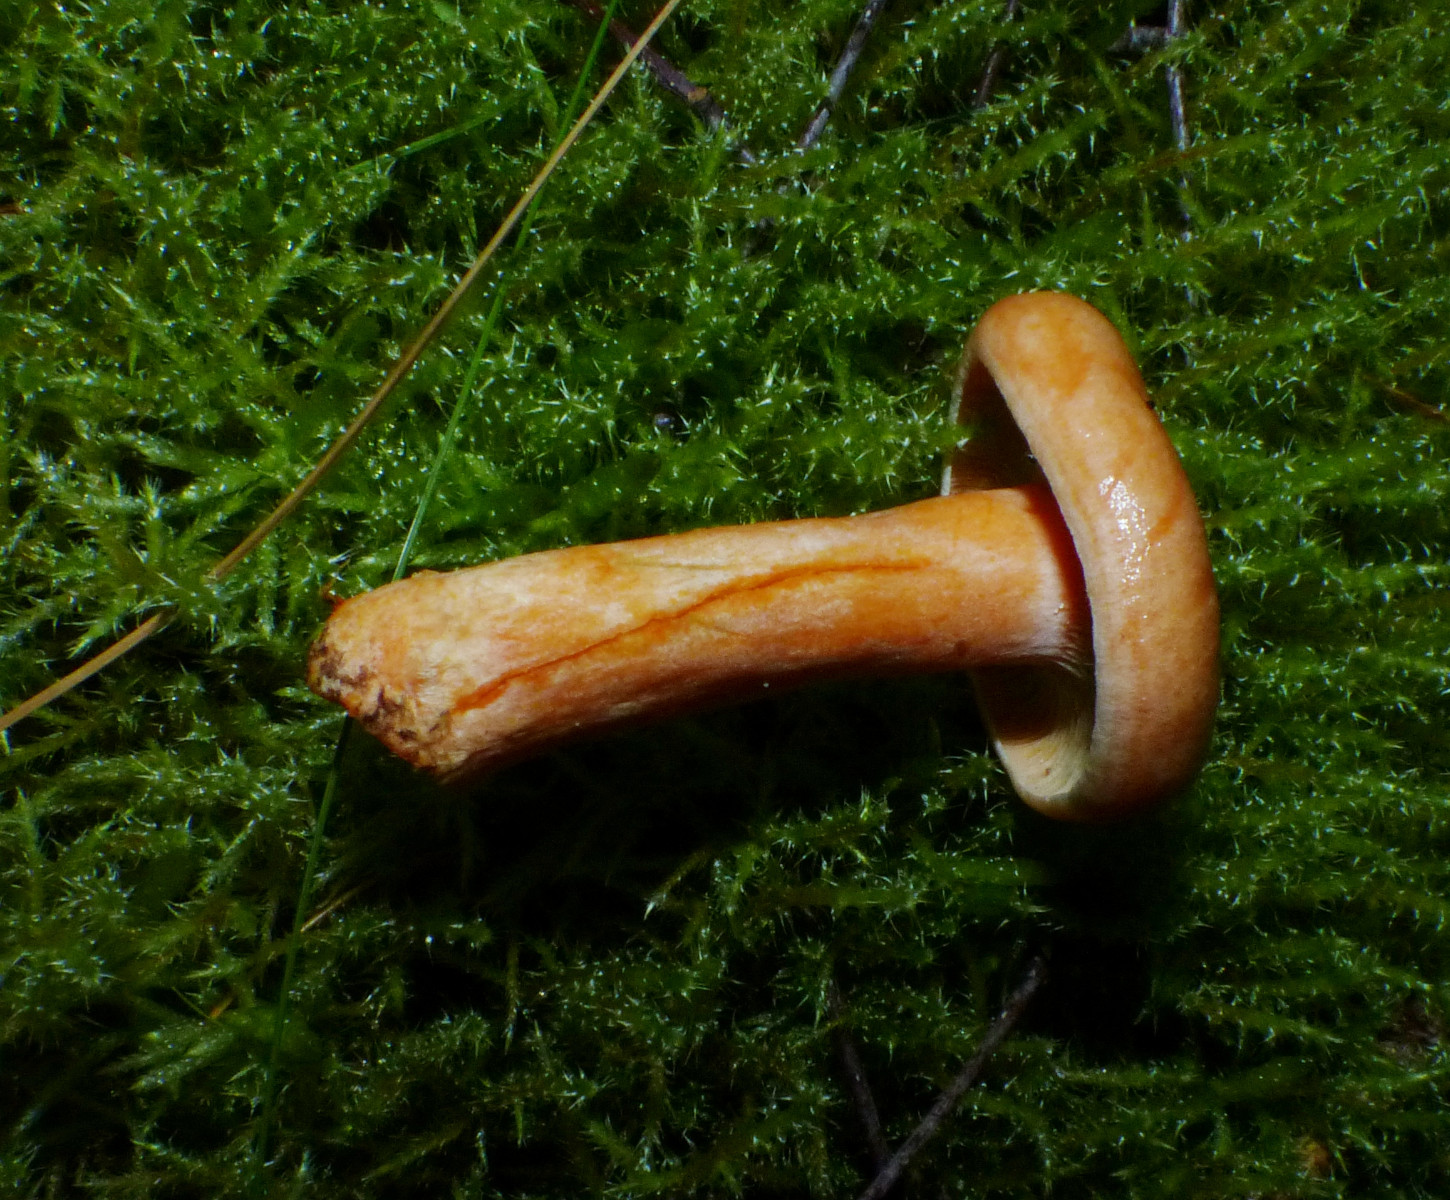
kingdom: Fungi
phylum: Basidiomycota
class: Agaricomycetes
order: Russulales
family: Russulaceae
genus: Lactarius
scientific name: Lactarius deterrimus
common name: gran-mælkehat
